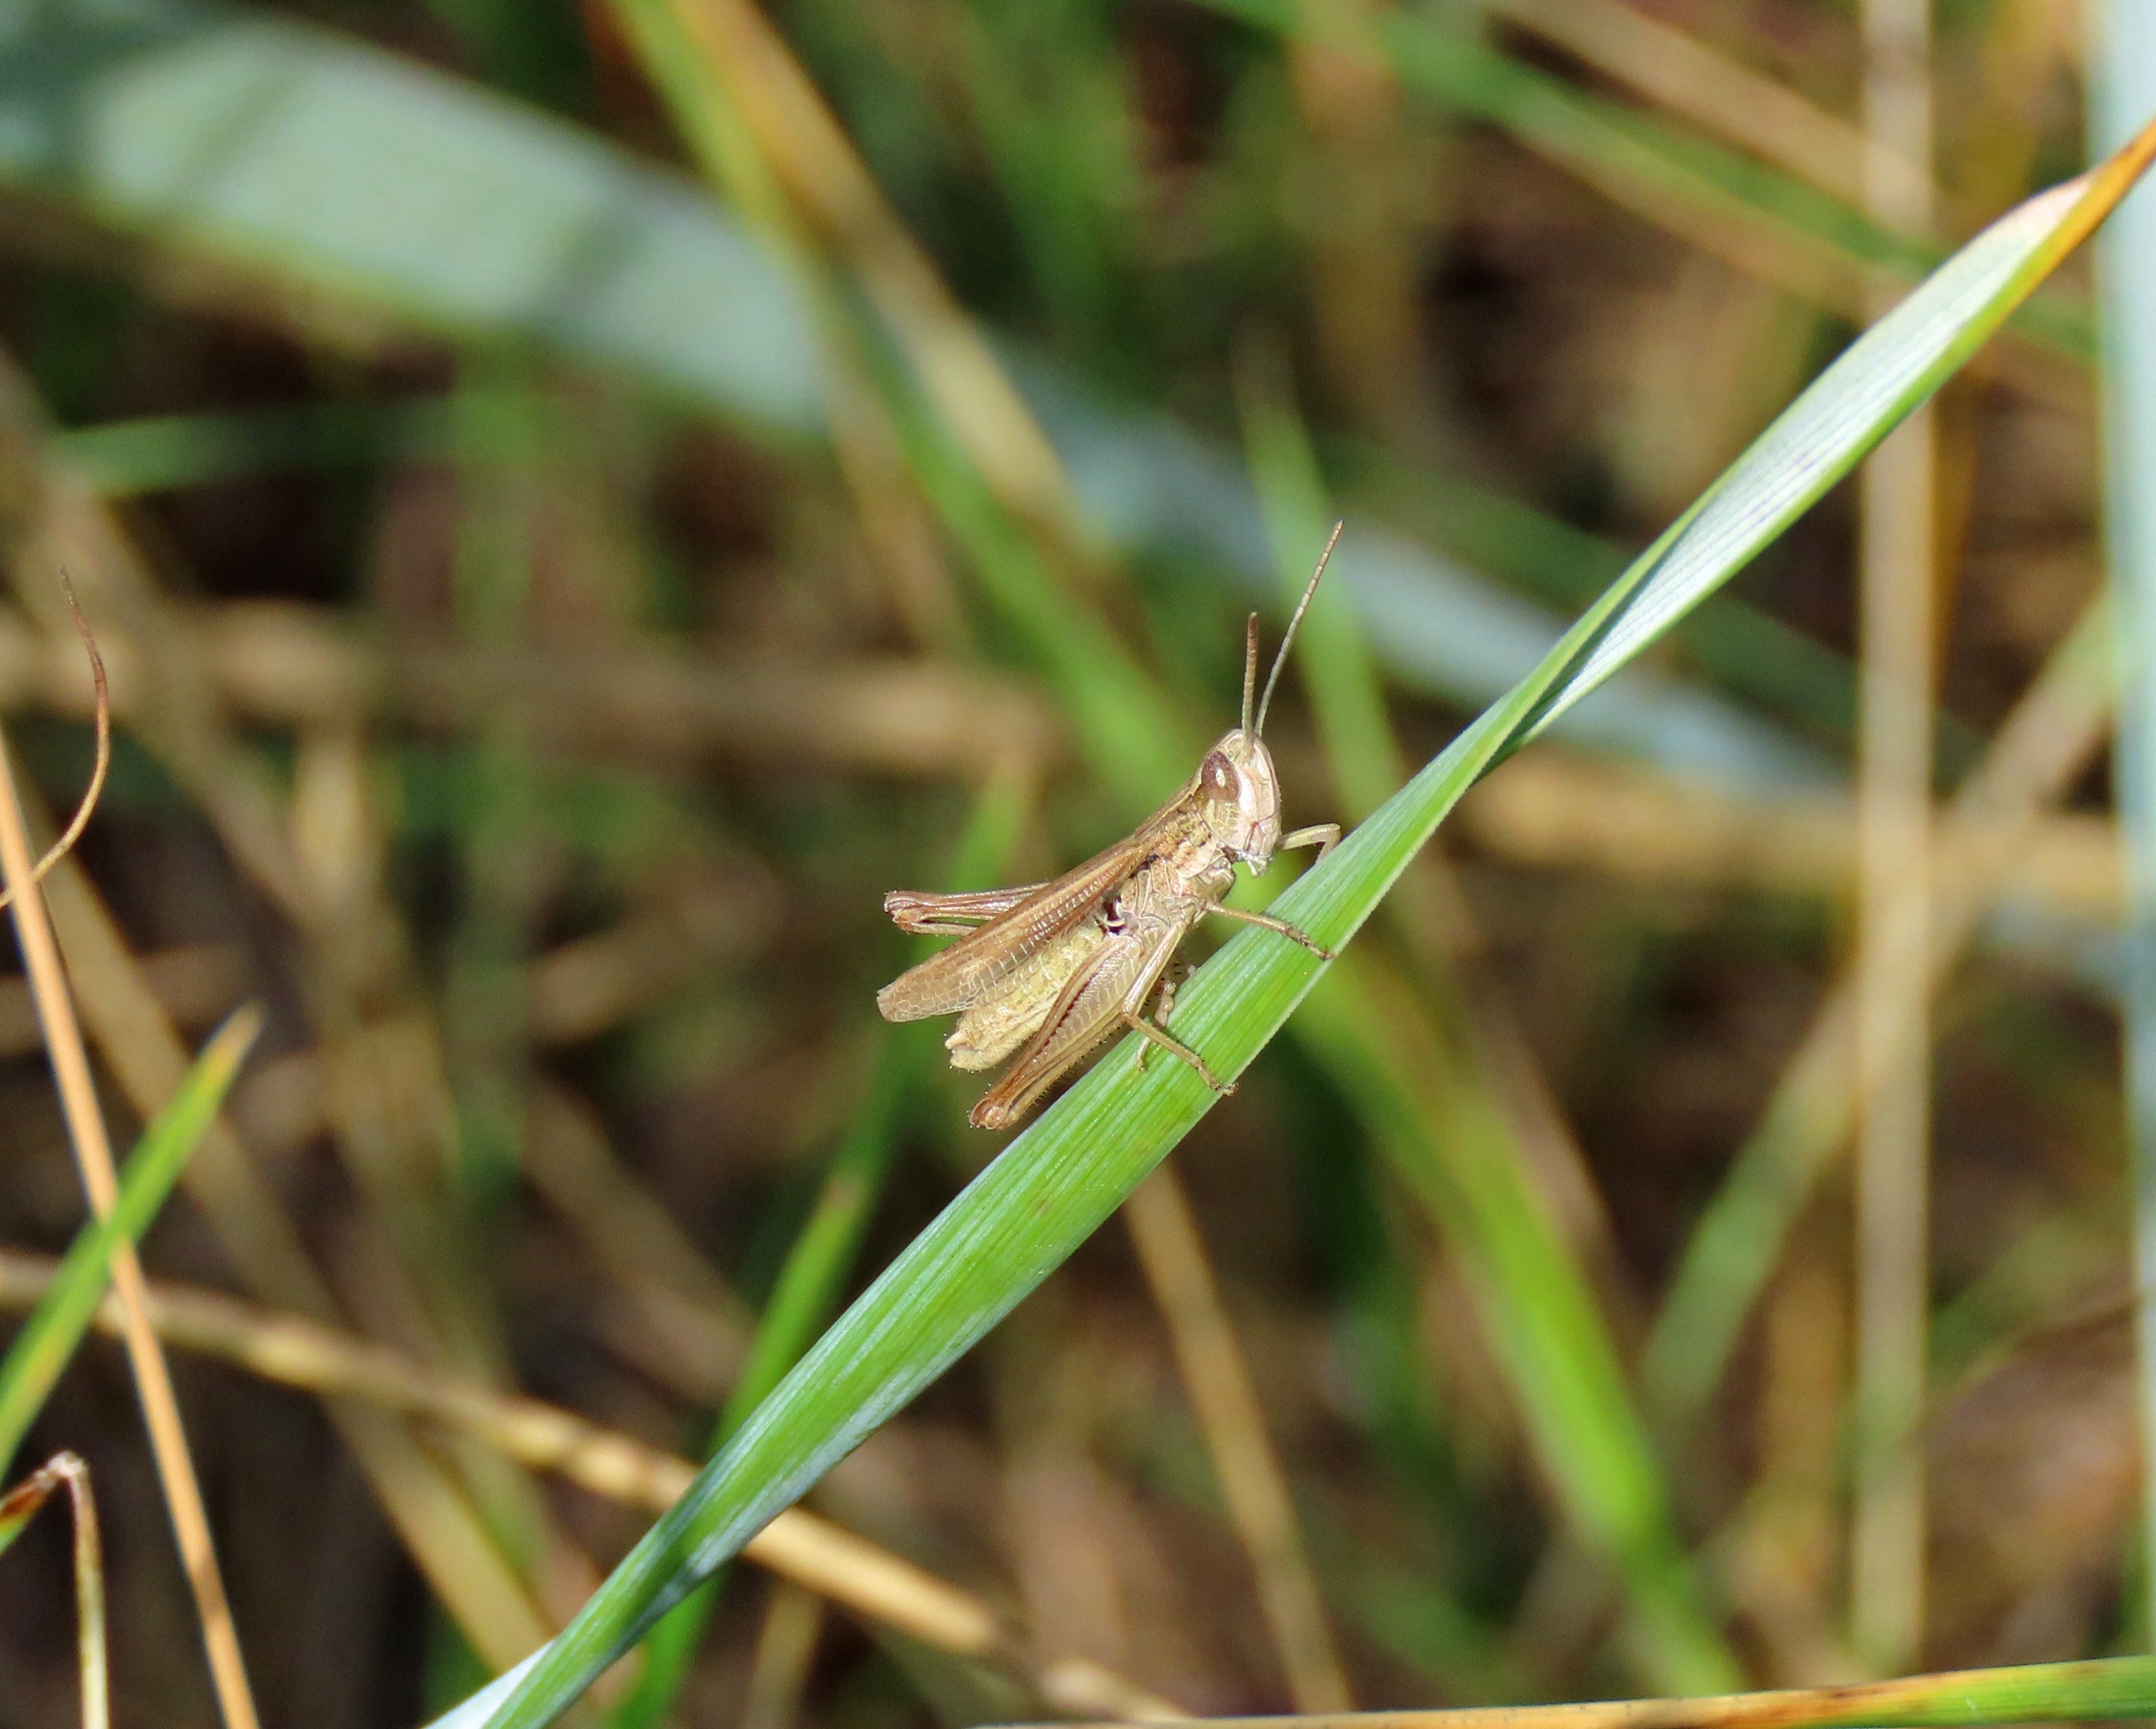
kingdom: Animalia
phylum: Arthropoda
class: Insecta
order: Orthoptera
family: Acrididae
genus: Chorthippus
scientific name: Chorthippus albomarginatus
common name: Strandengsgræshoppe
